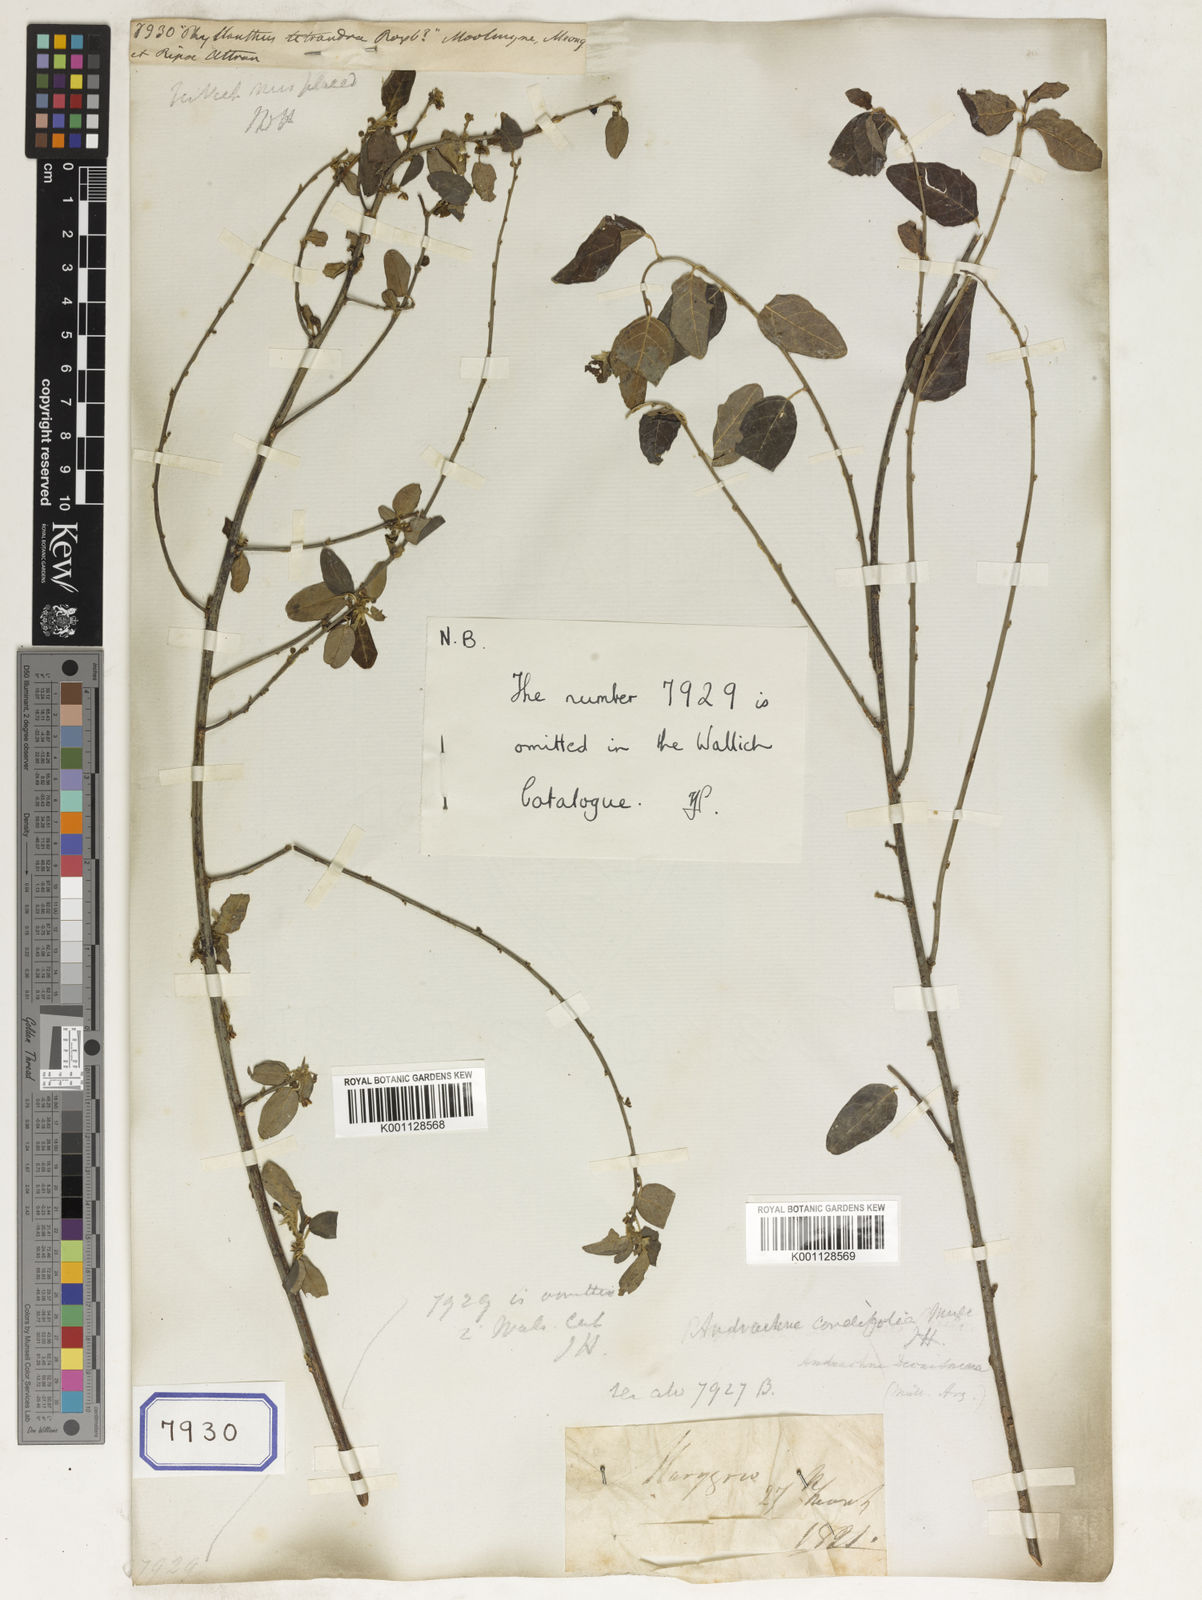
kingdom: Plantae
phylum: Tracheophyta
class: Magnoliopsida
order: Malpighiales
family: Euphorbiaceae
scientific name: Euphorbiaceae
